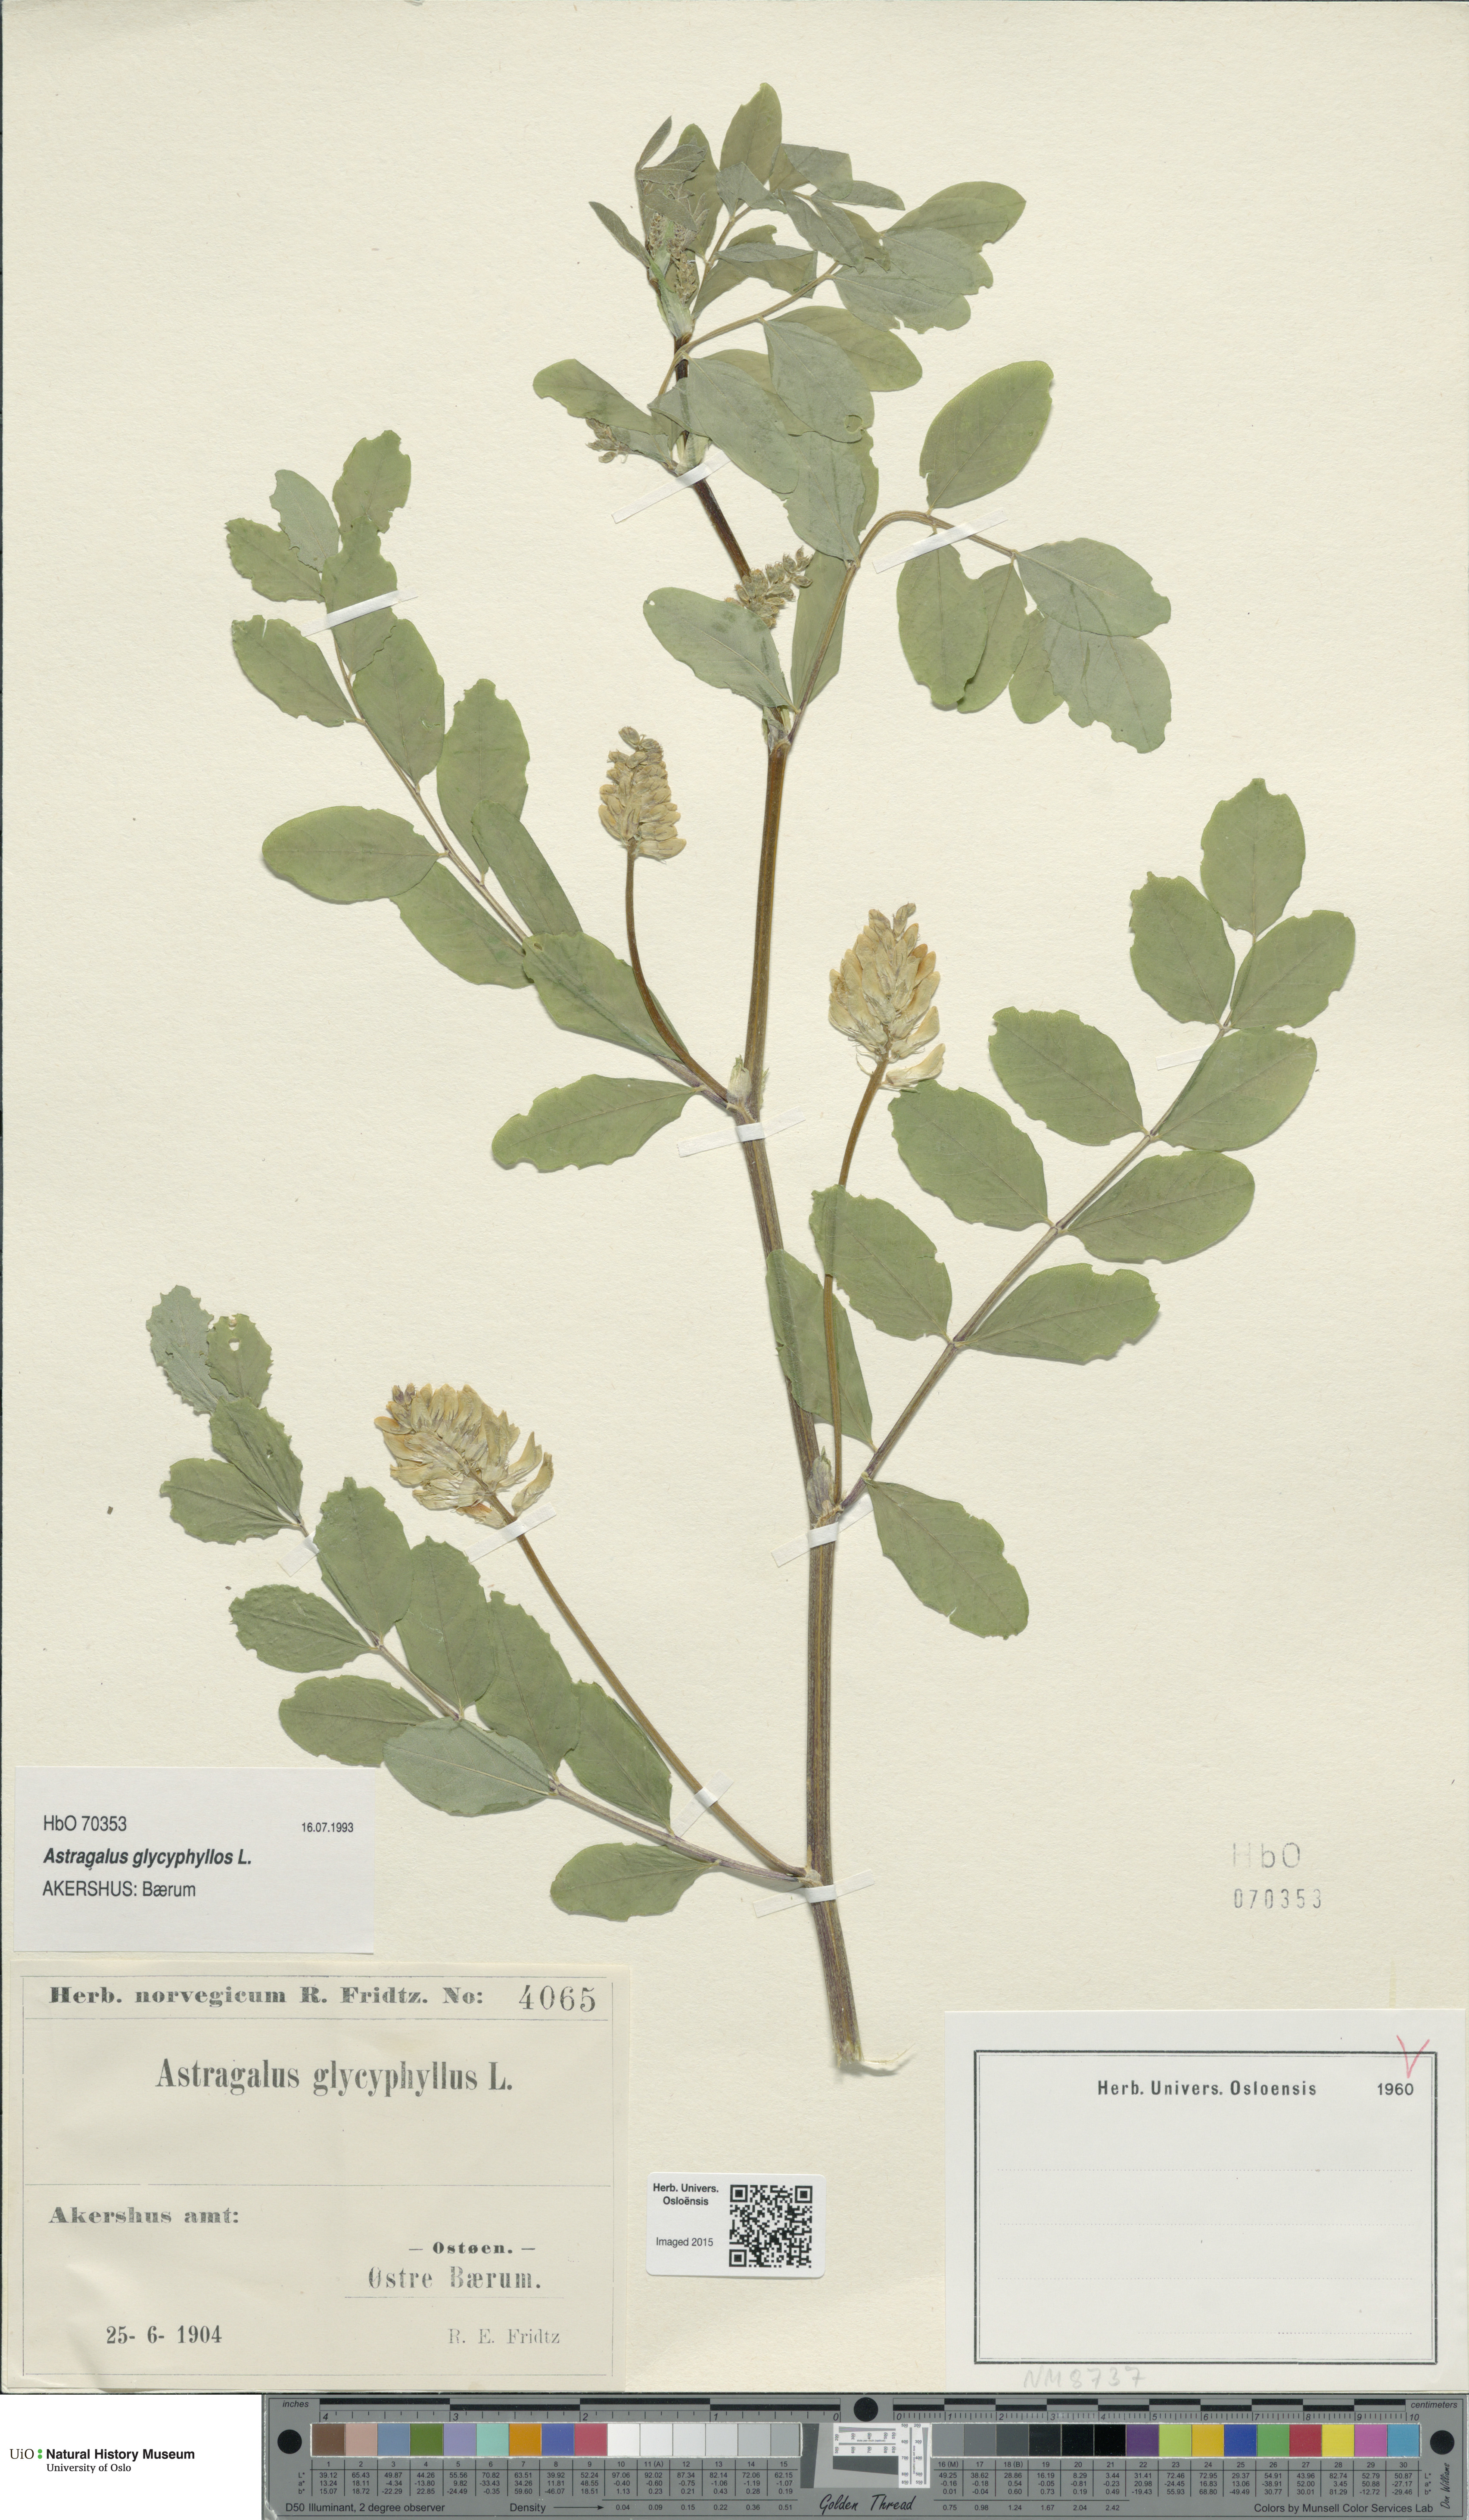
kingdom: Plantae
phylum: Tracheophyta
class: Magnoliopsida
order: Fabales
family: Fabaceae
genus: Astragalus
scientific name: Astragalus glycyphyllos
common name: Wild liquorice
